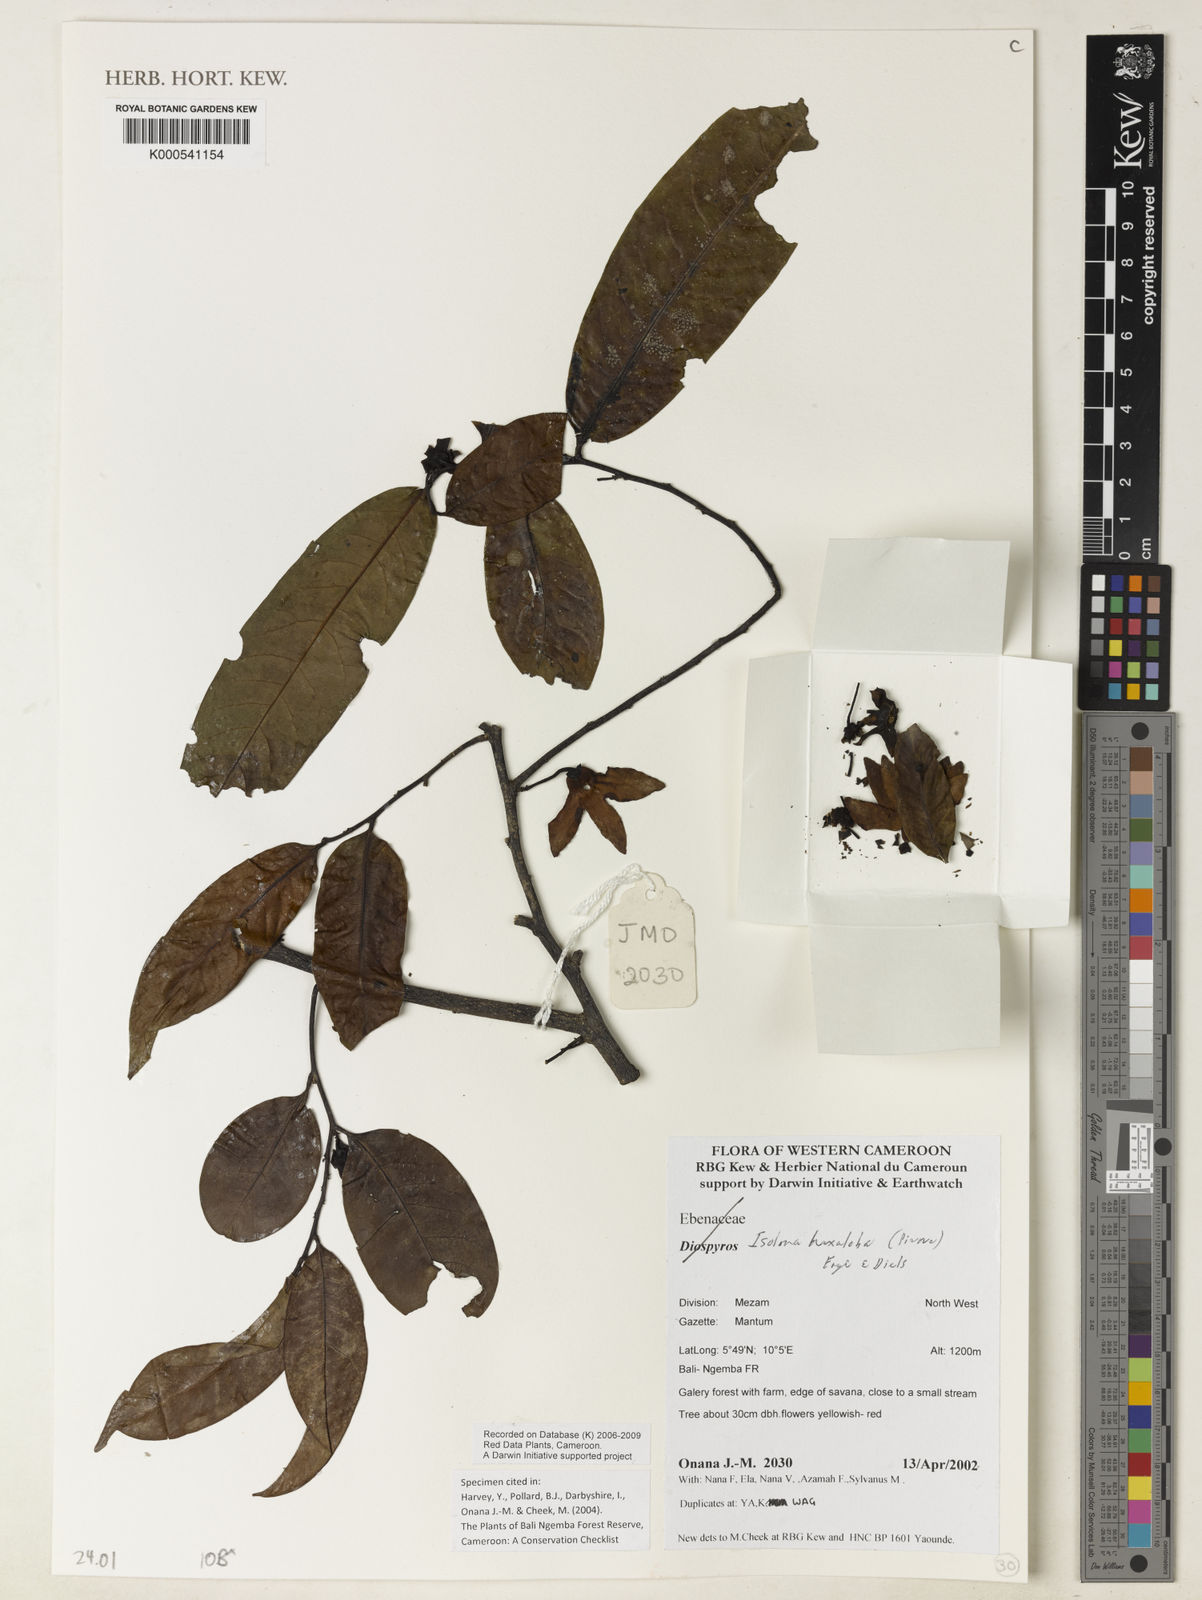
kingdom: Plantae
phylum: Tracheophyta
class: Magnoliopsida
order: Magnoliales
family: Annonaceae
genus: Isolona
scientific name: Isolona hexaloba
